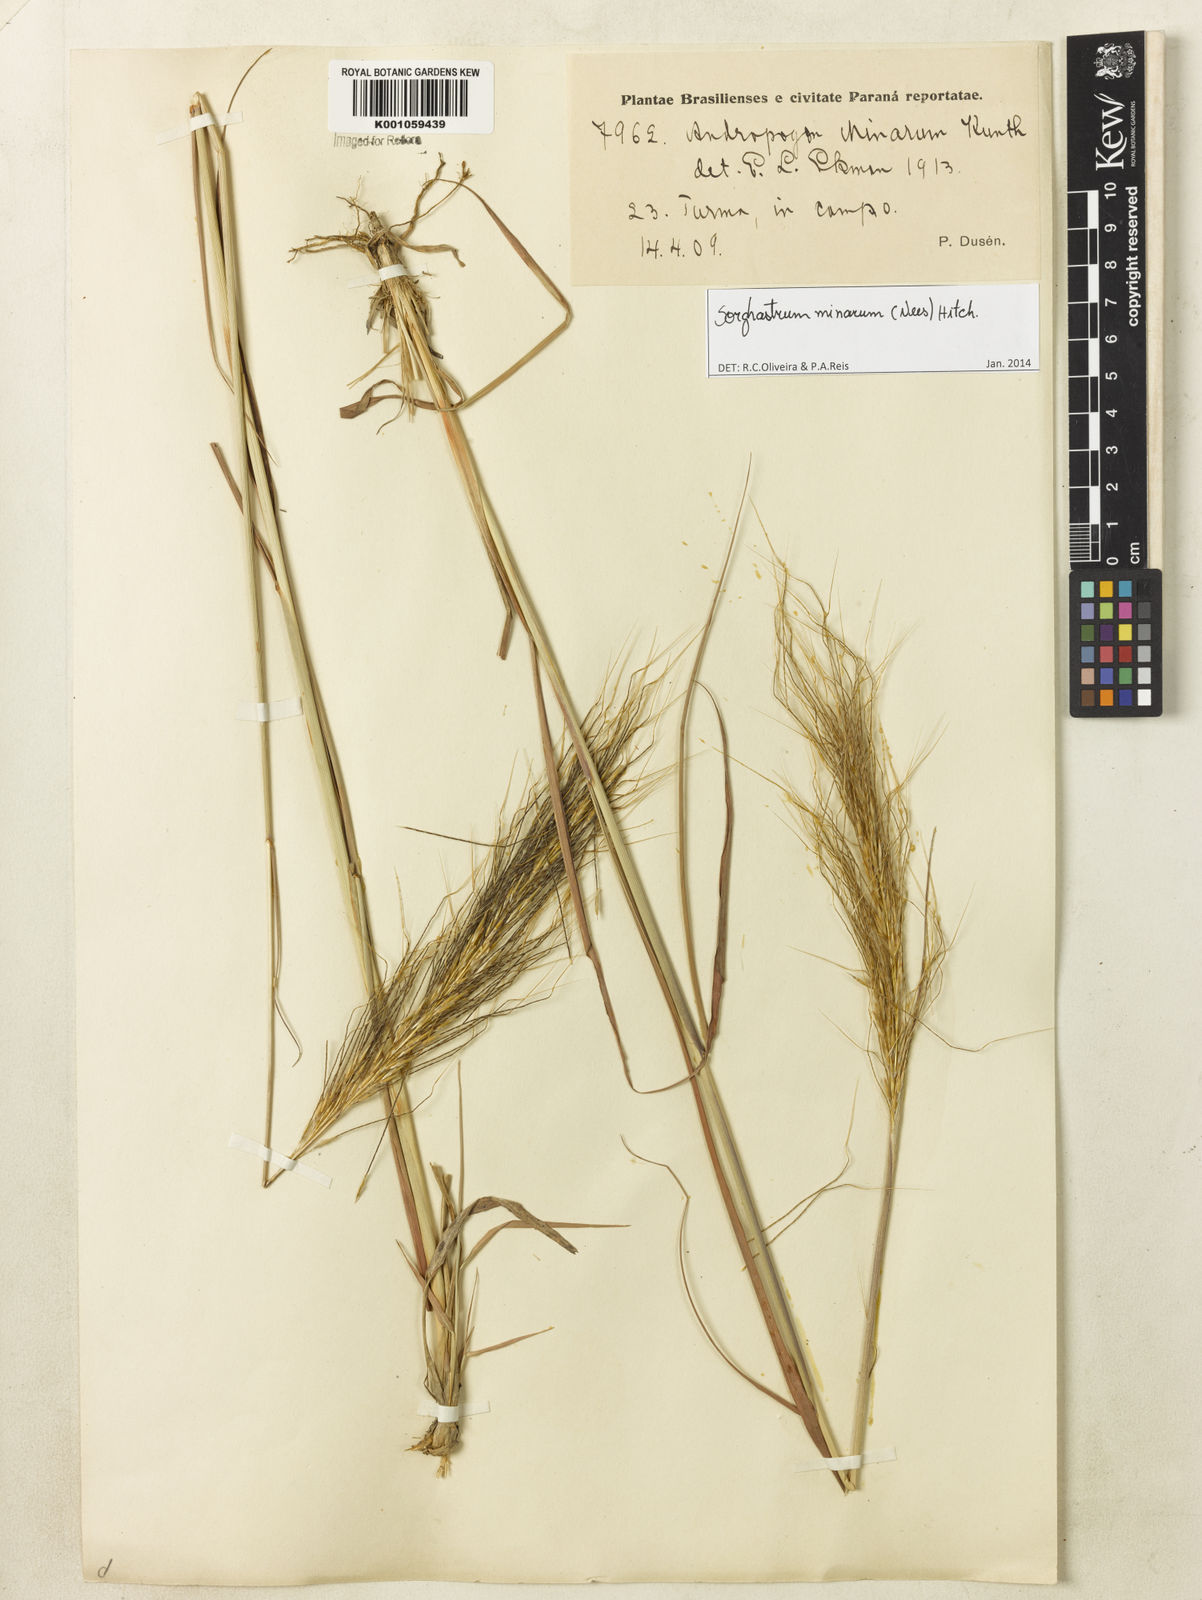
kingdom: Plantae
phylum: Tracheophyta
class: Liliopsida
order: Poales
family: Poaceae
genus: Sorghastrum
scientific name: Sorghastrum minarum
